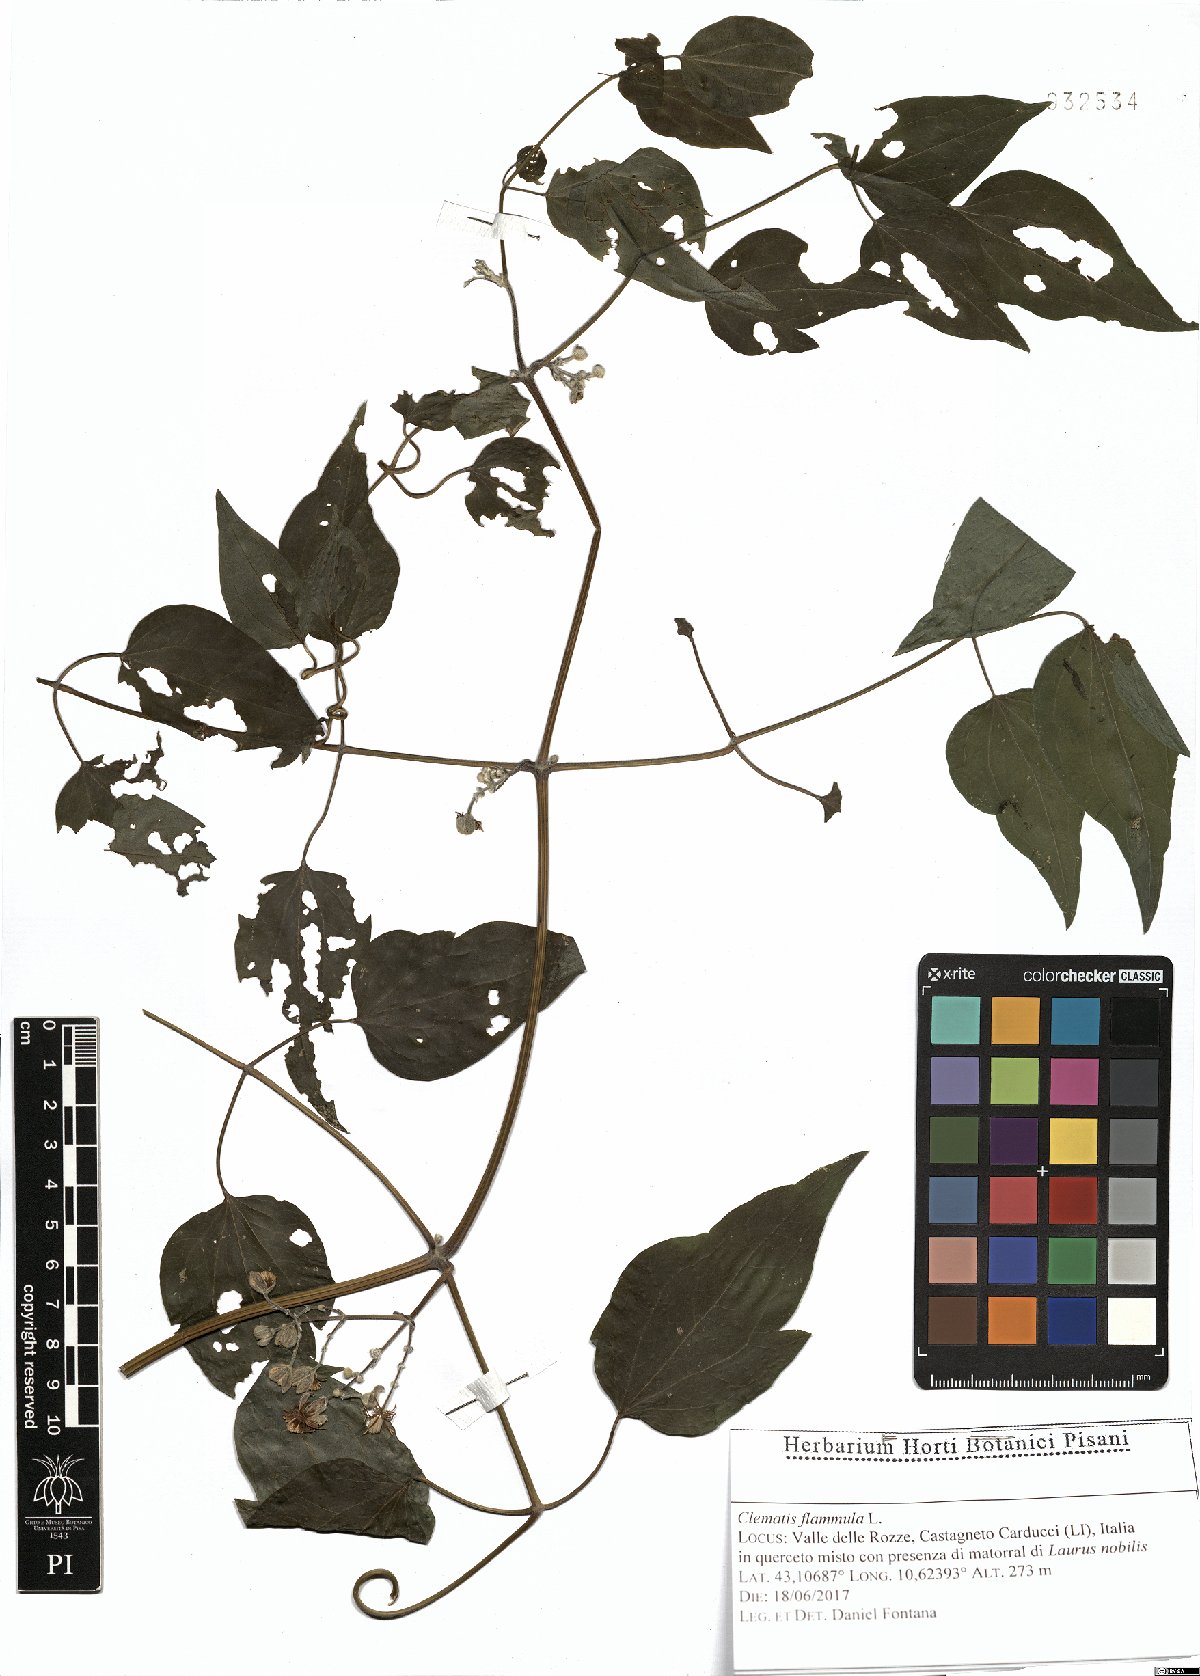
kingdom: Plantae
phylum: Tracheophyta
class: Magnoliopsida
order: Ranunculales
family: Ranunculaceae
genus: Clematis
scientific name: Clematis flammula
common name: Virgin's-bower
